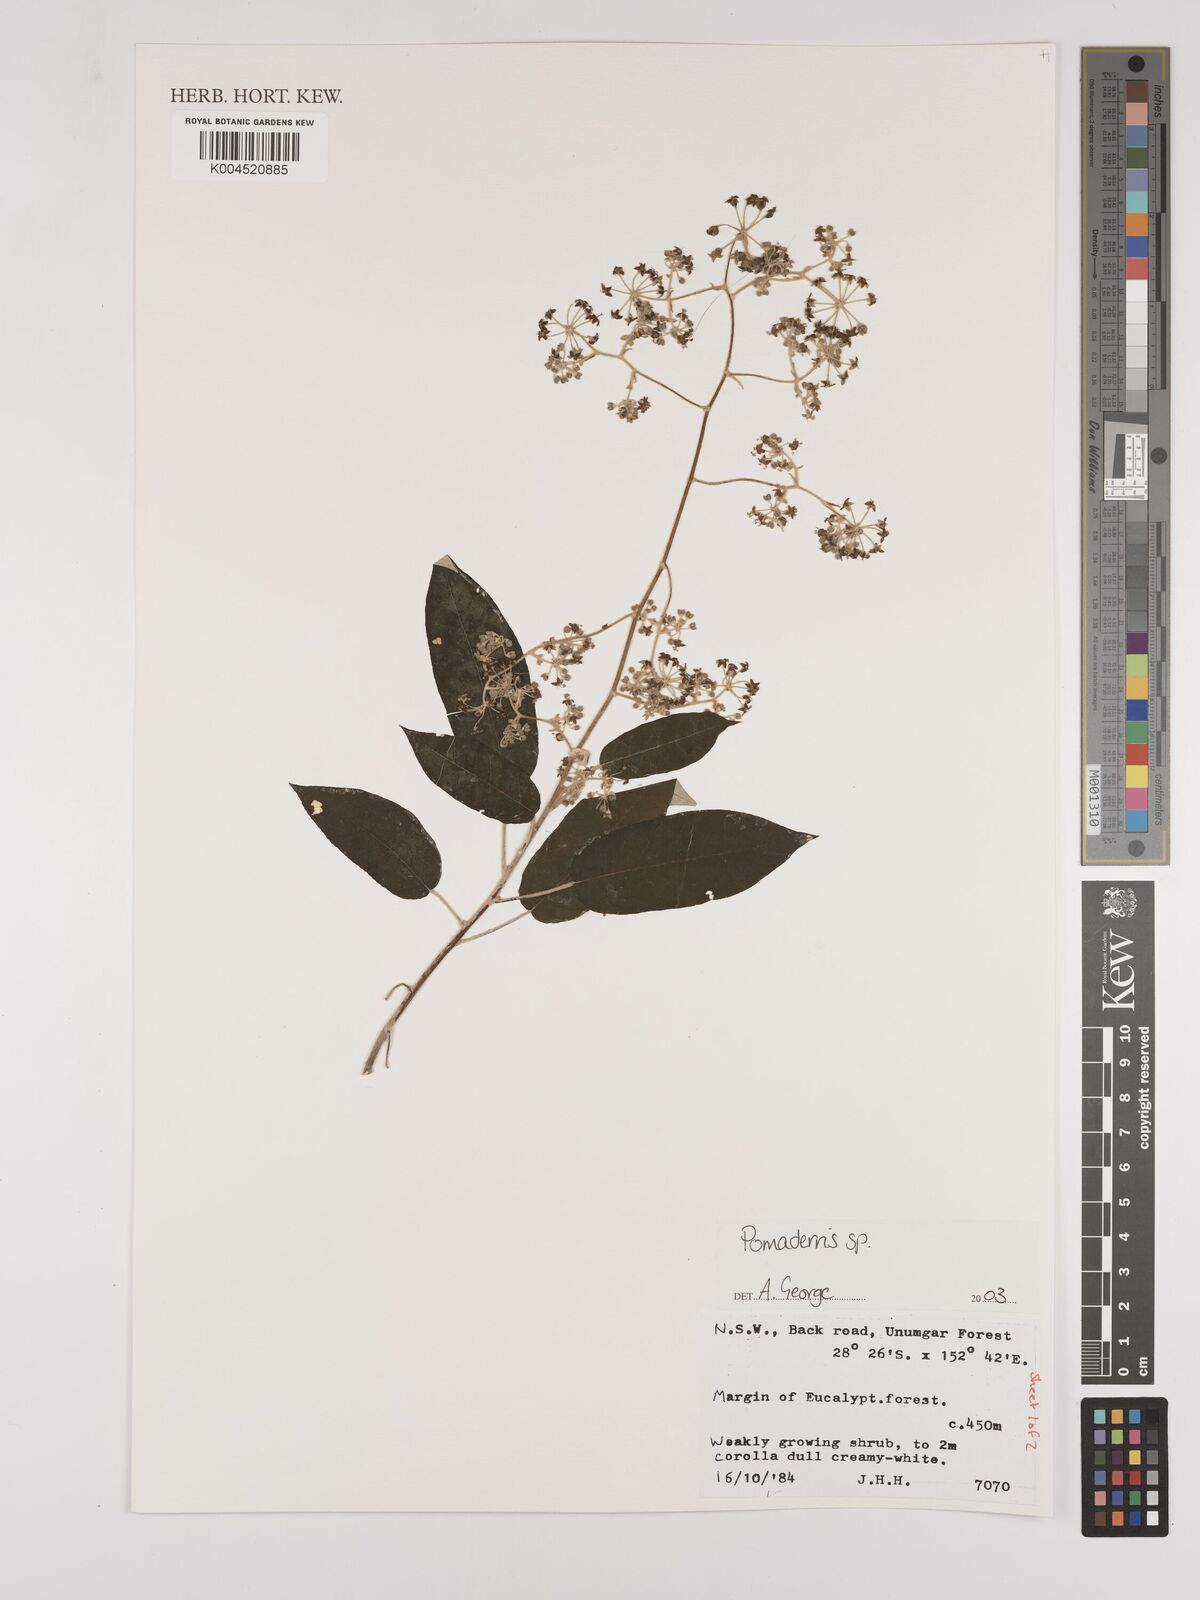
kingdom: Plantae
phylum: Tracheophyta
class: Magnoliopsida
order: Rosales
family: Rhamnaceae
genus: Pomaderris
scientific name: Pomaderris
